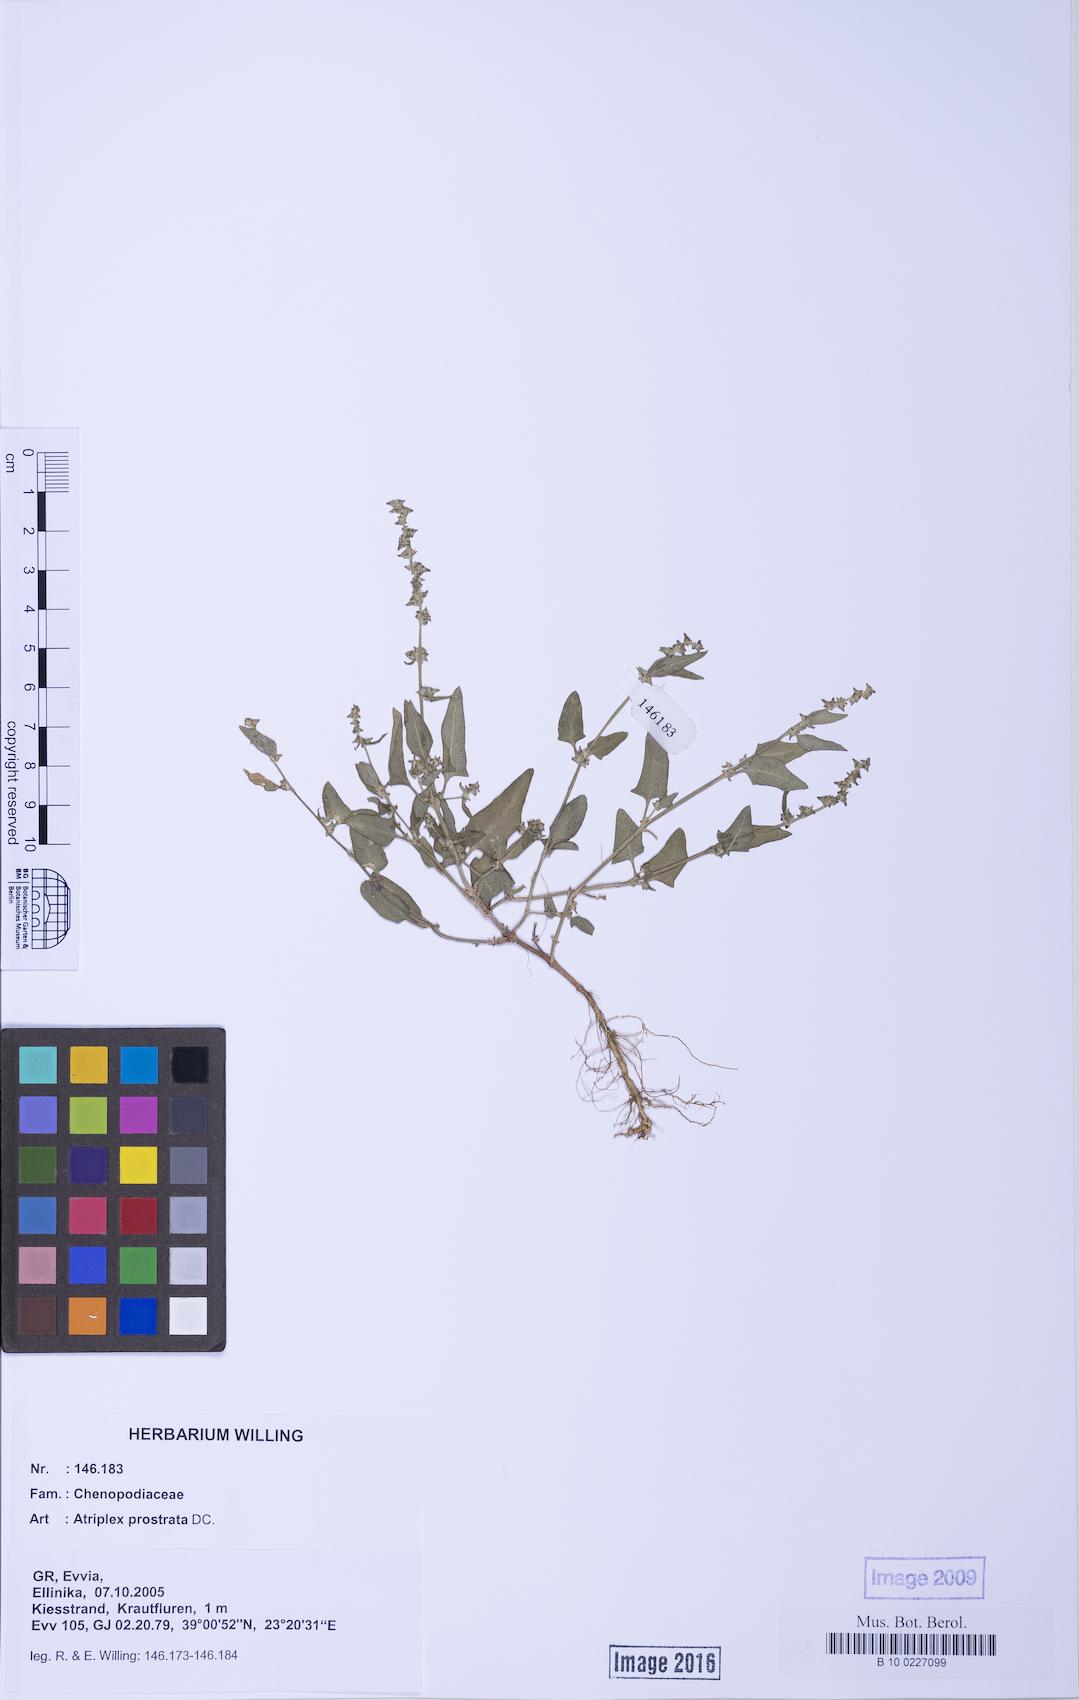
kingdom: Plantae
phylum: Tracheophyta
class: Magnoliopsida
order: Caryophyllales
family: Amaranthaceae
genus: Atriplex
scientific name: Atriplex prostrata
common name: Spear-leaved orache
